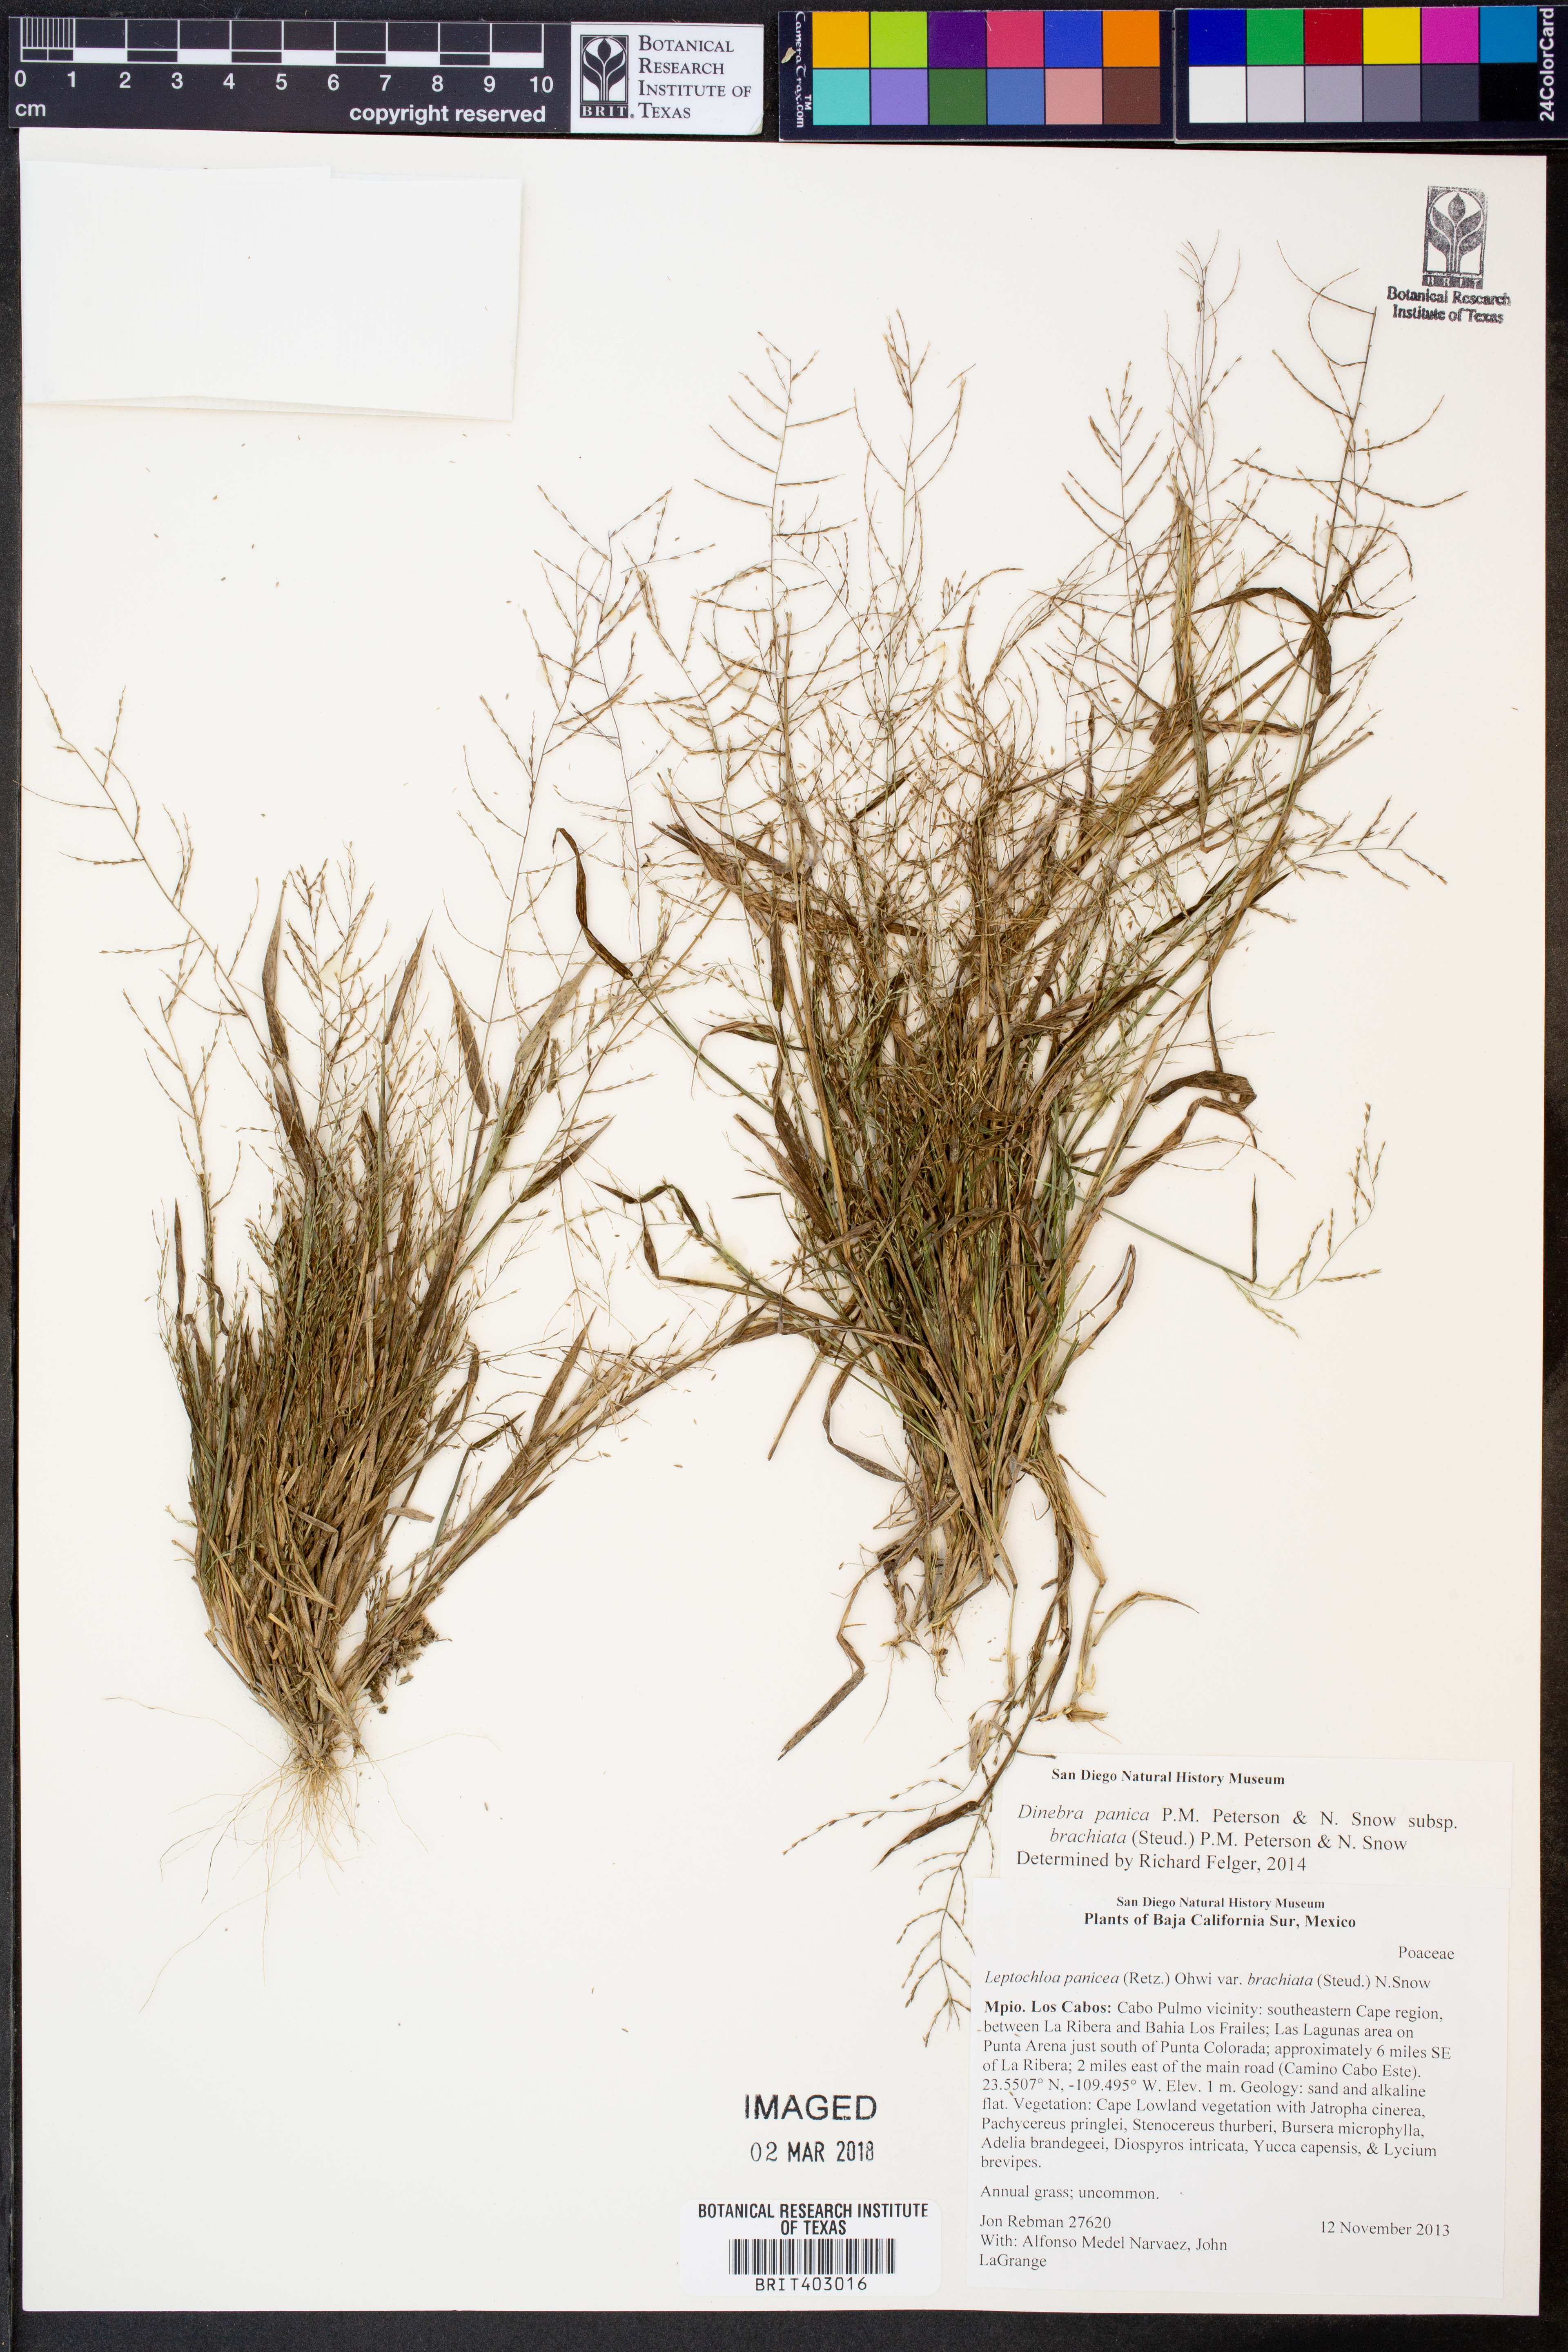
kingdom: Plantae
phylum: Tracheophyta
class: Liliopsida
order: Poales
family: Poaceae
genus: Leptochloa
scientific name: Leptochloa panicea
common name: Mucronate sprangletop
